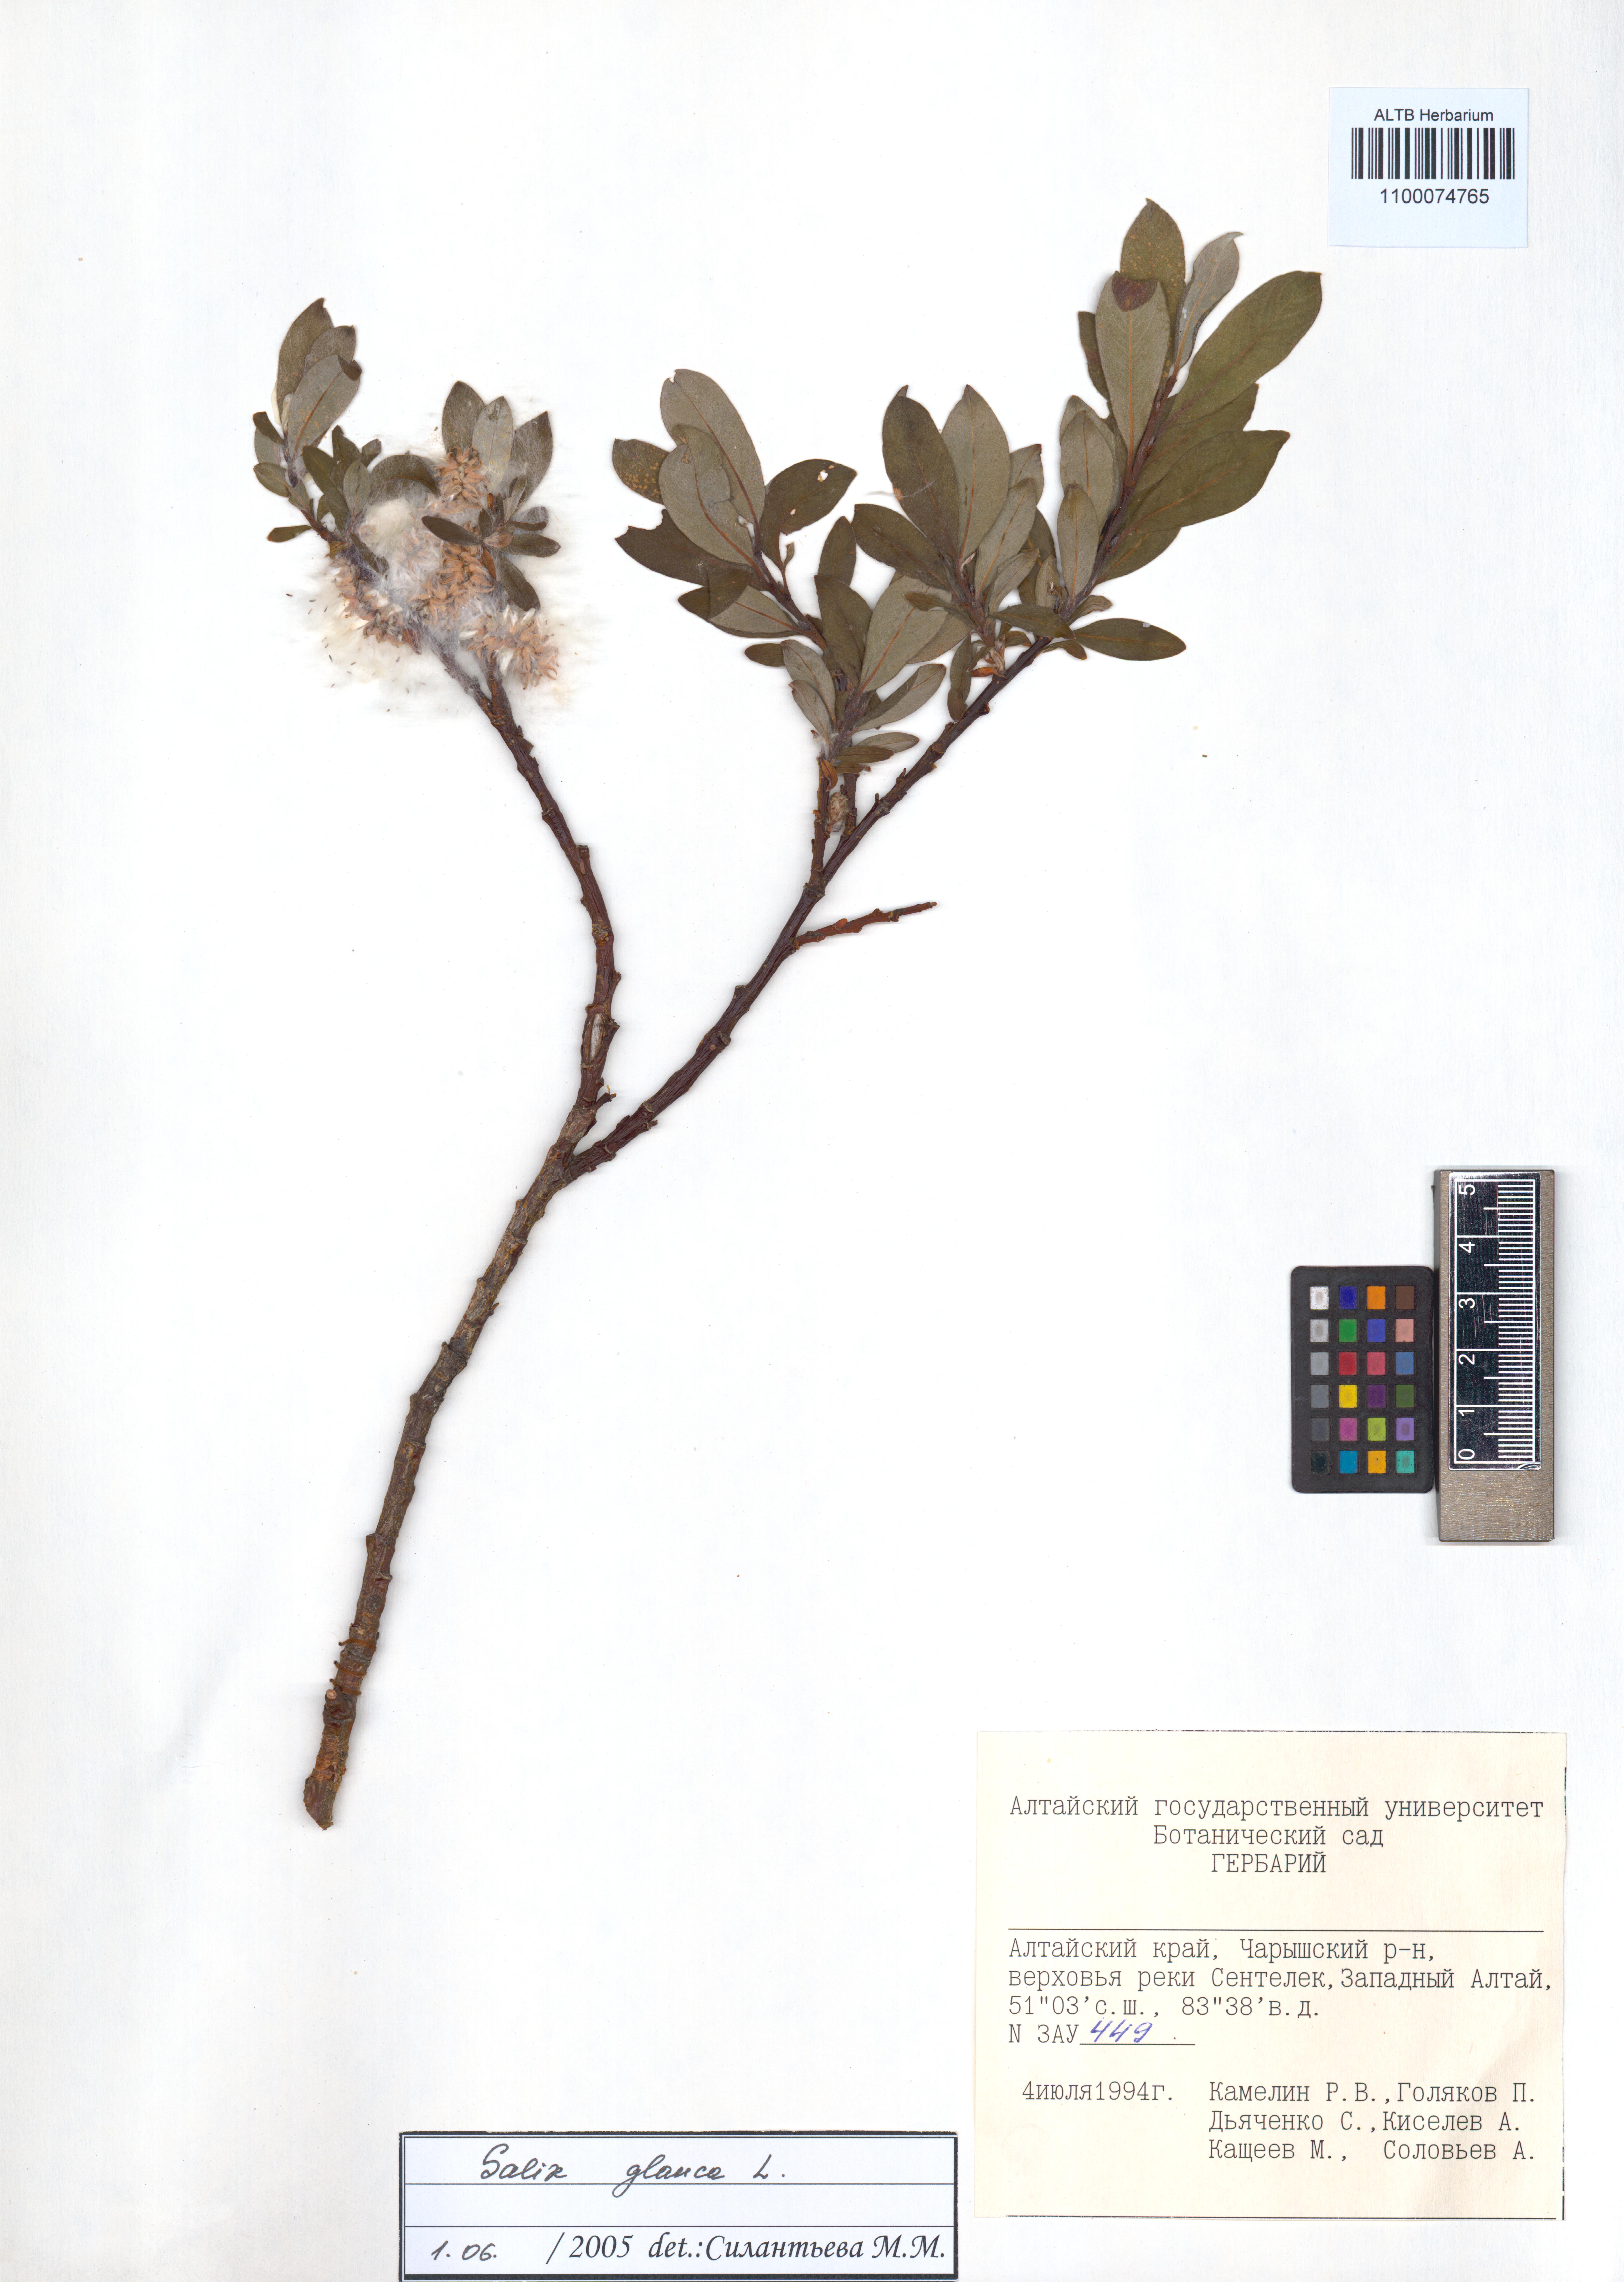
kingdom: Plantae
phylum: Tracheophyta
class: Magnoliopsida
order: Malpighiales
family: Salicaceae
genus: Salix
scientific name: Salix glauca
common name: Glaucous willow
